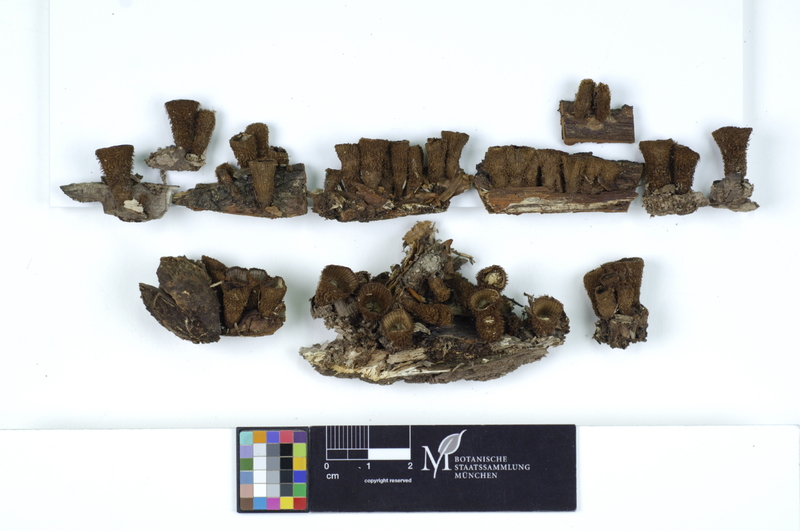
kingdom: Fungi
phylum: Basidiomycota
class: Agaricomycetes
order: Agaricales
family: Agaricaceae
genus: Cyathus
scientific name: Cyathus striatus
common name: Fluted bird's nest
